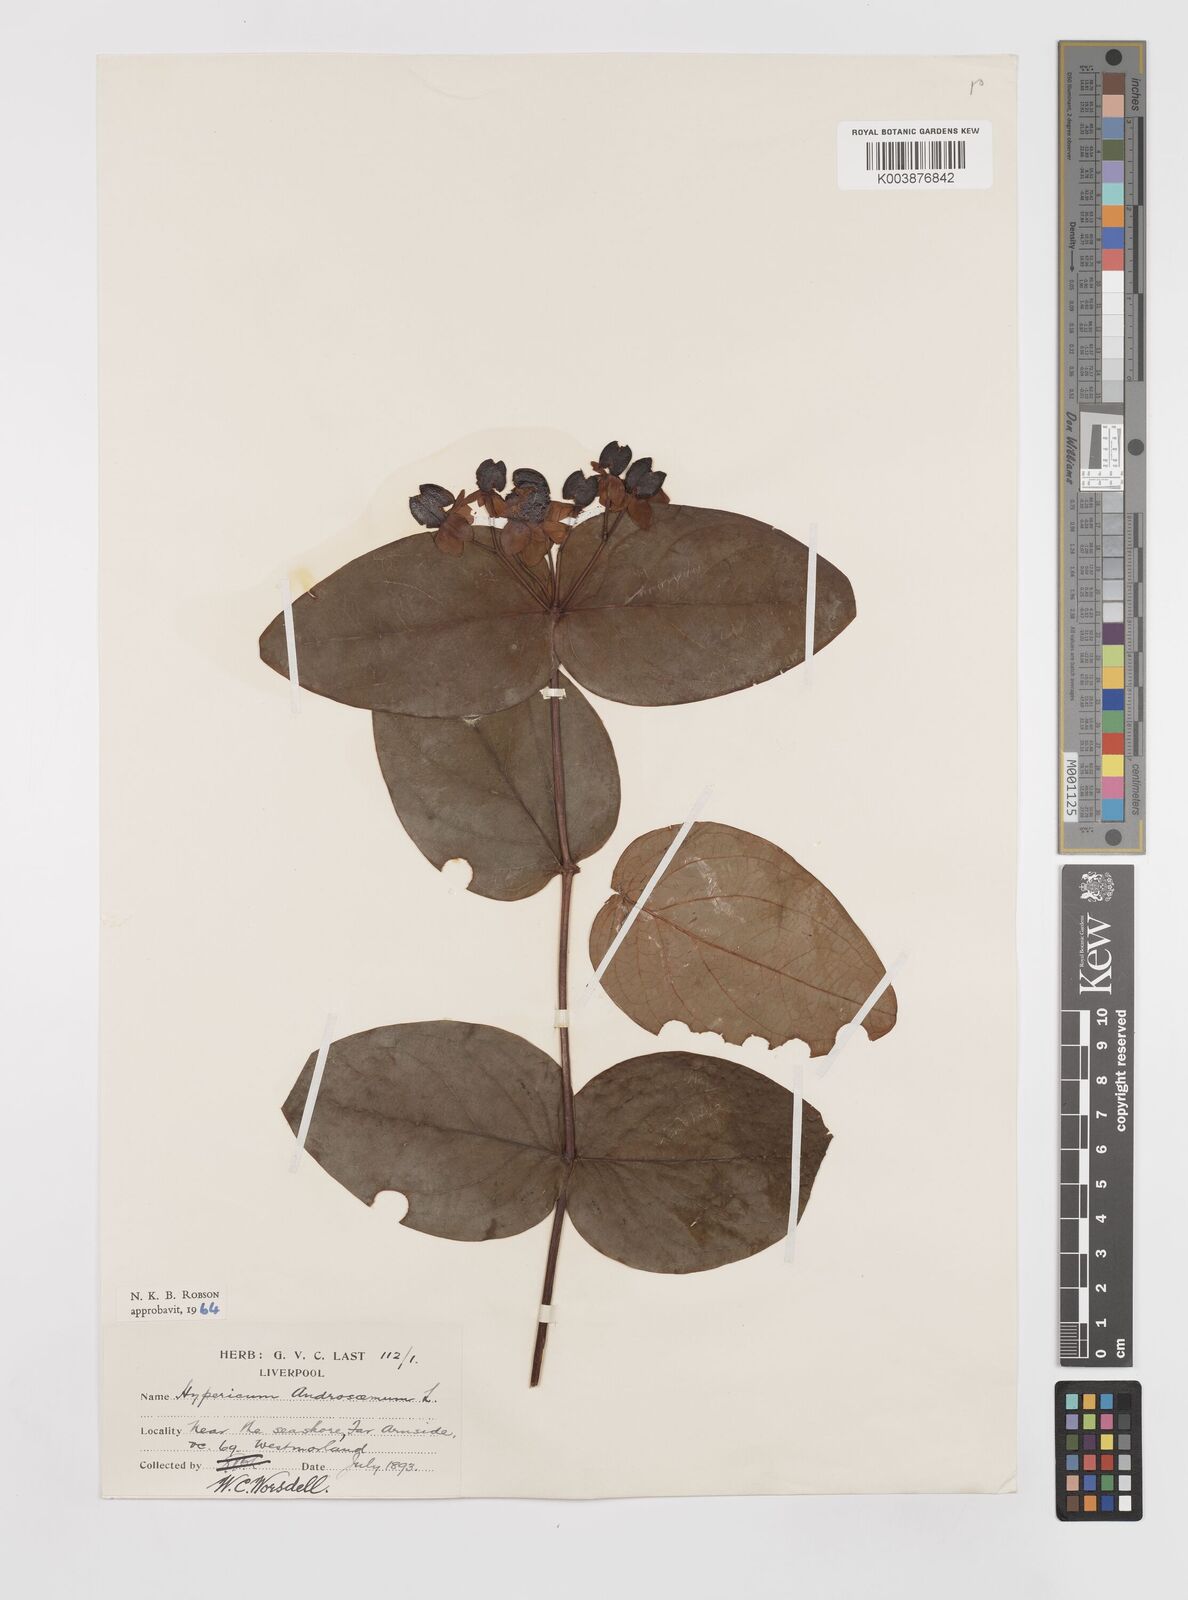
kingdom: Plantae
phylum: Tracheophyta
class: Magnoliopsida
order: Malpighiales
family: Hypericaceae
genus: Hypericum
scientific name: Hypericum androsaemum
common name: Sweet-amber
